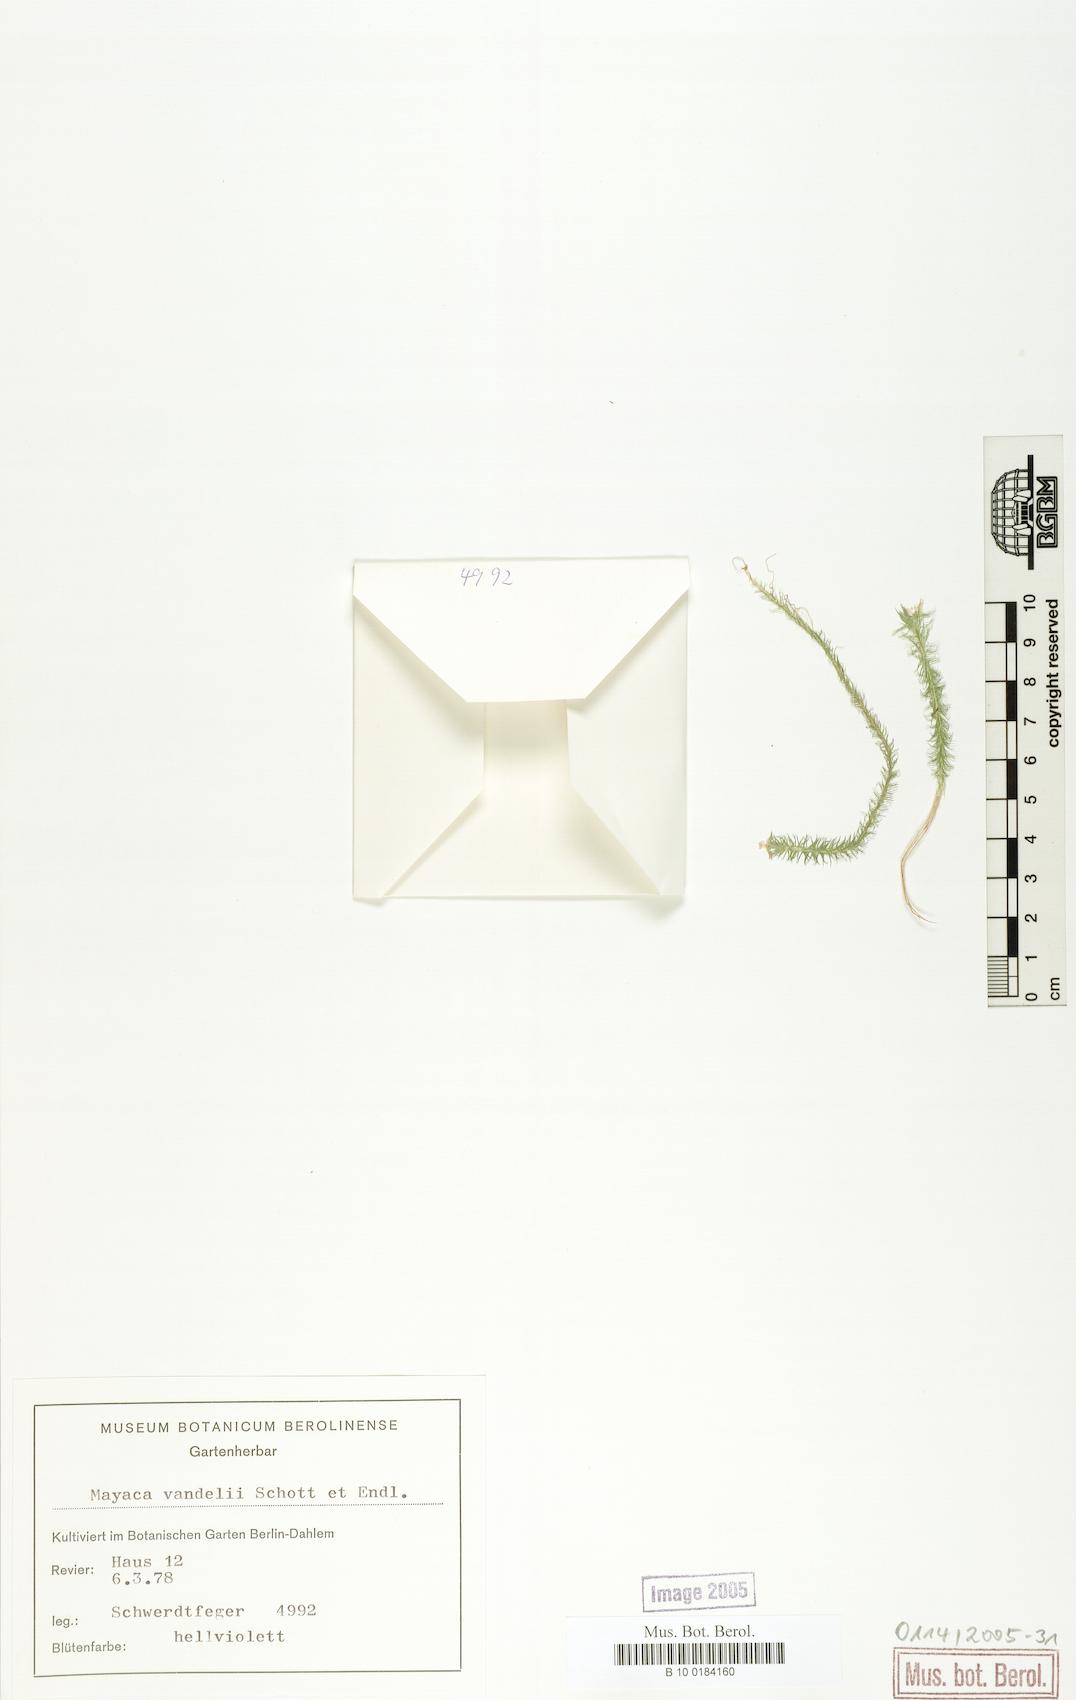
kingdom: Plantae
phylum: Tracheophyta
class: Liliopsida
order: Poales
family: Mayacaceae
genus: Mayaca
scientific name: Mayaca fluviatilis
